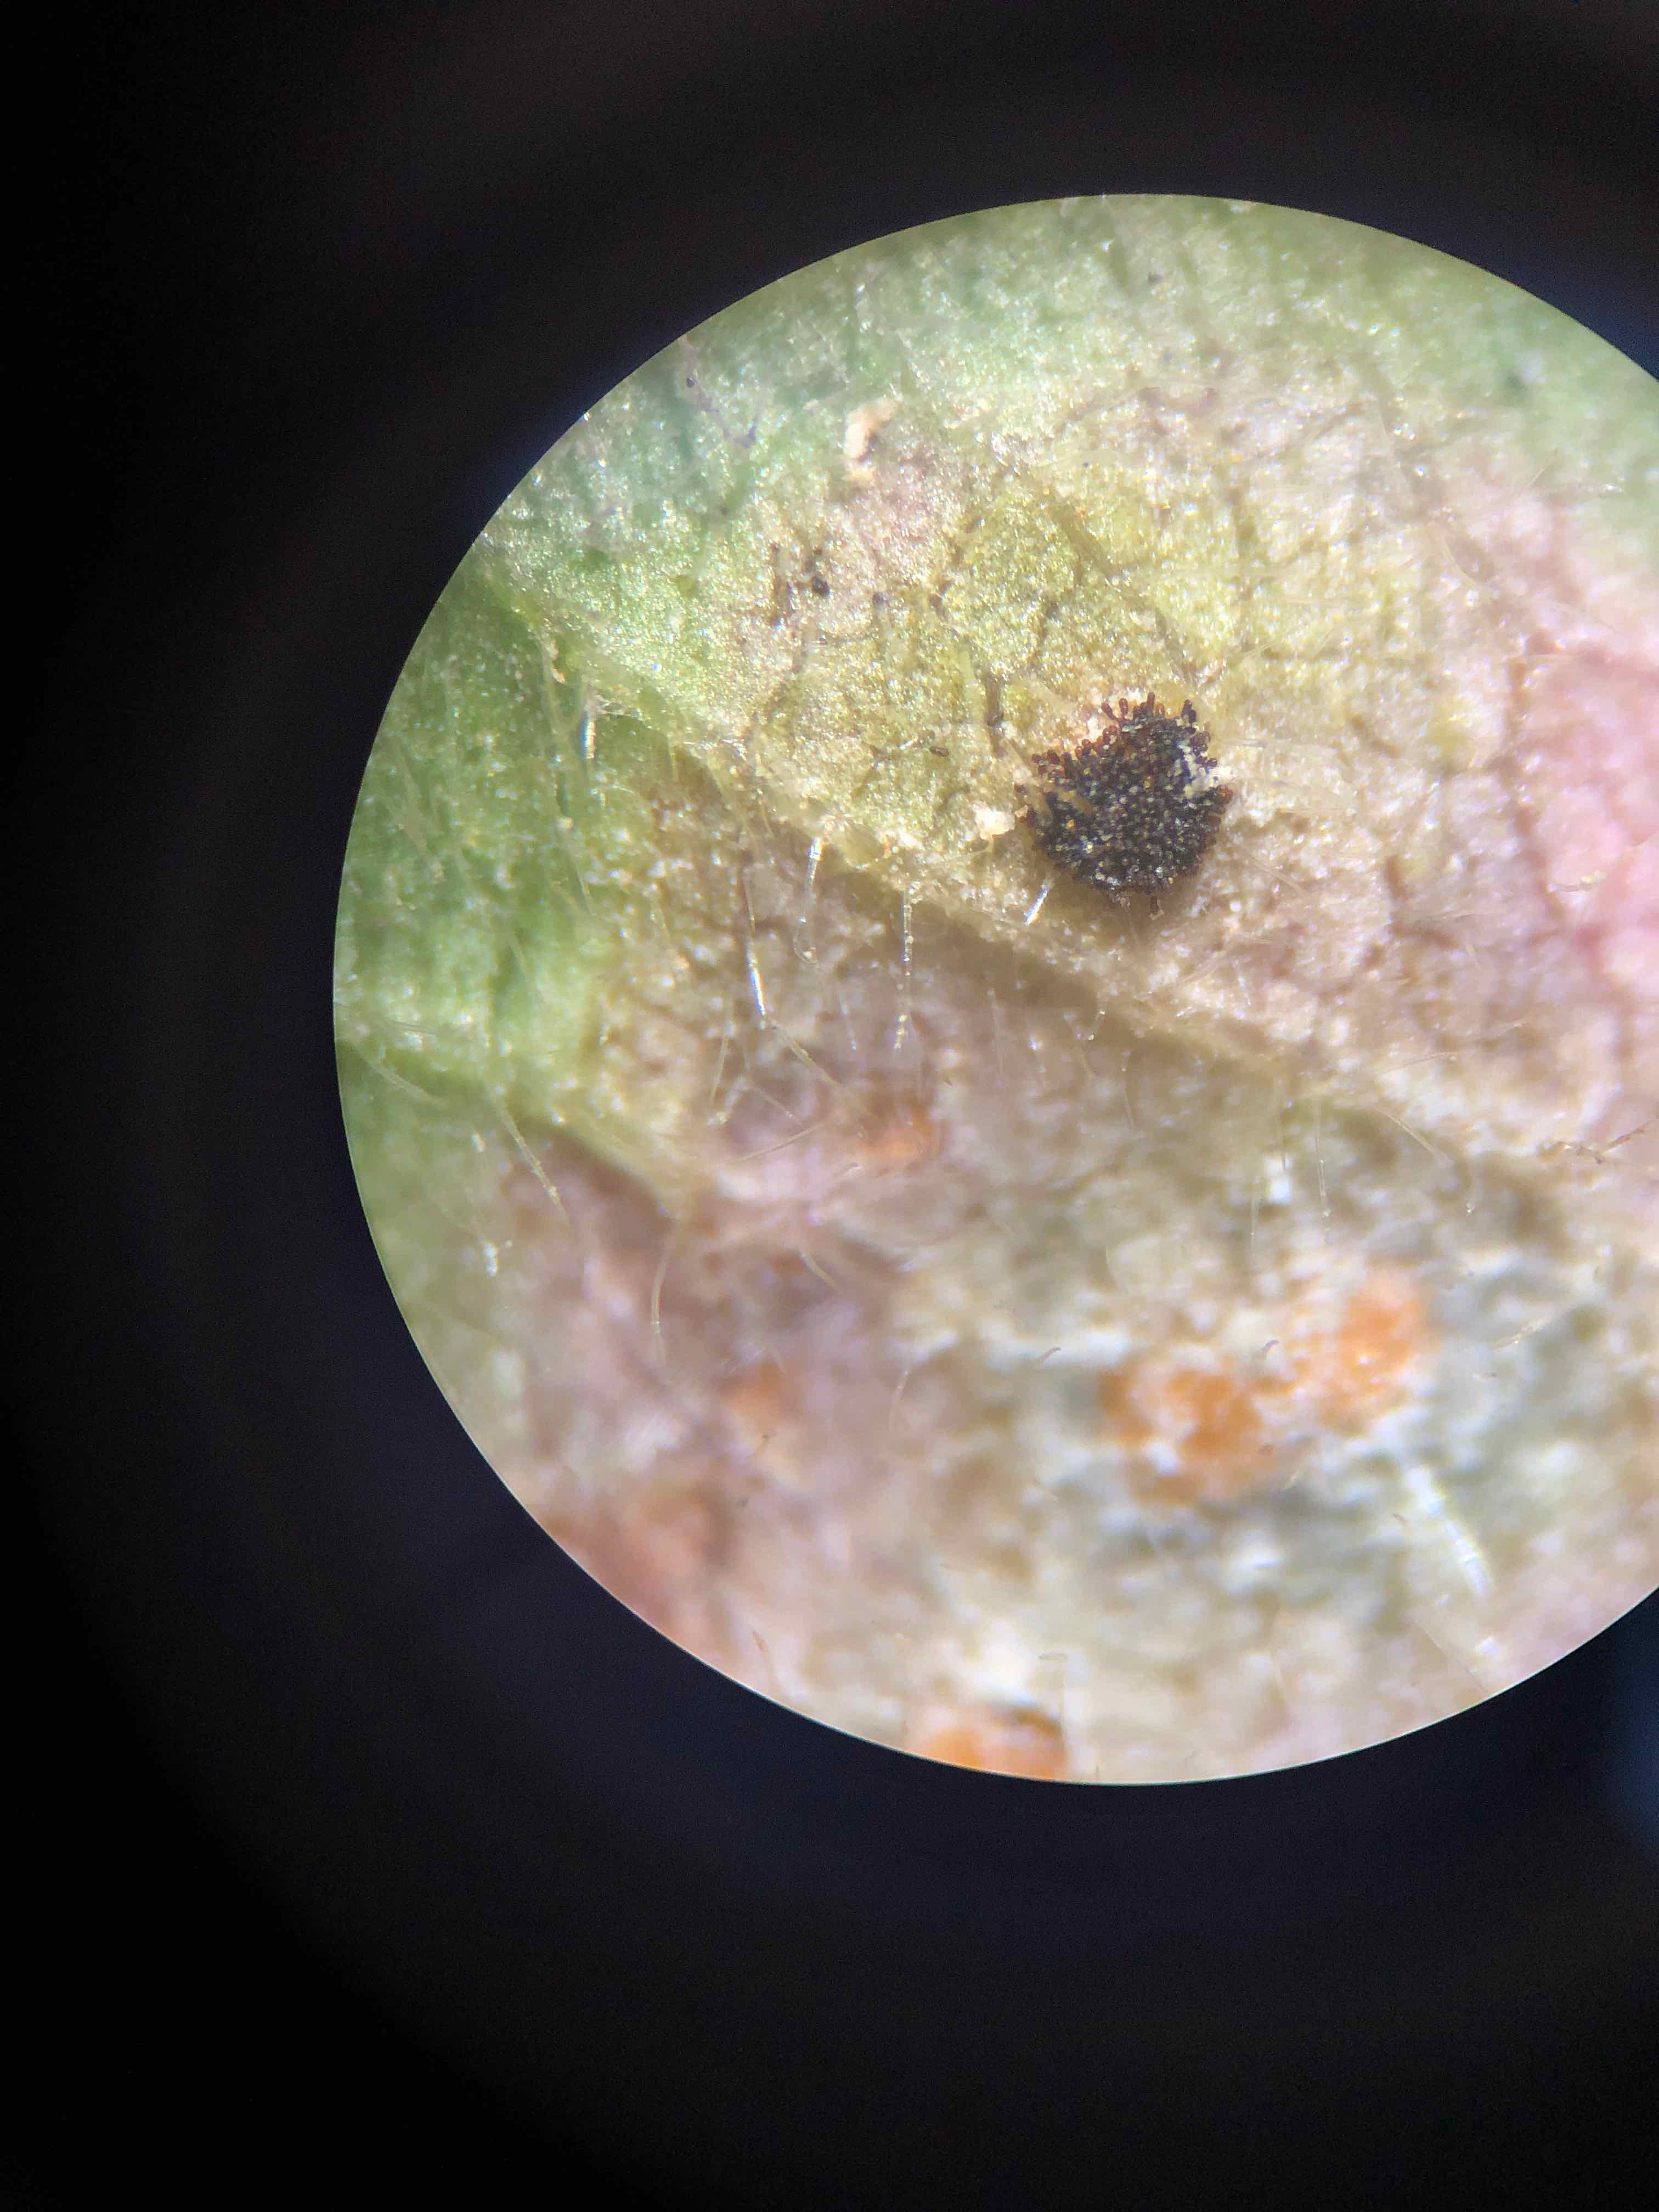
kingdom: Fungi
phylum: Basidiomycota
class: Pucciniomycetes
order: Pucciniales
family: Phragmidiaceae
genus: Phragmidium
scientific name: Phragmidium violaceum
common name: violet flercellerust
